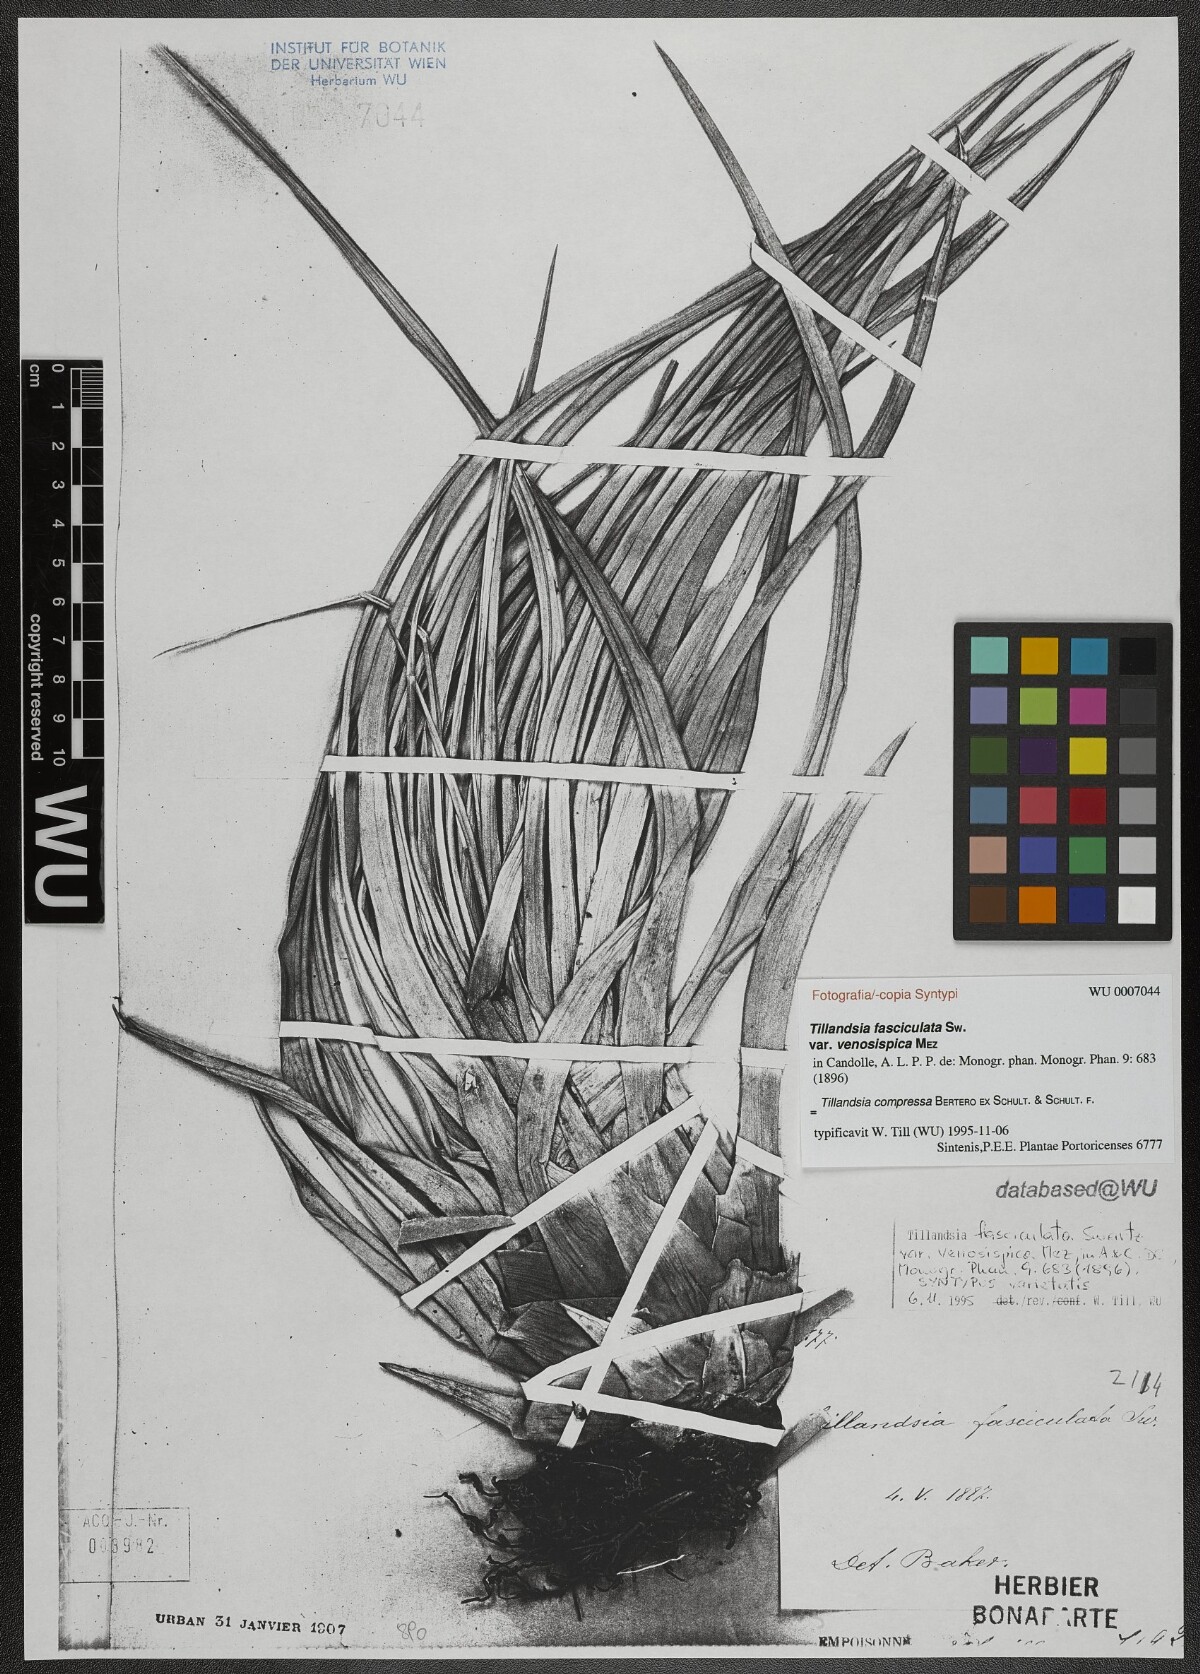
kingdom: Plantae
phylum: Tracheophyta
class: Liliopsida
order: Poales
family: Bromeliaceae
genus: Tillandsia
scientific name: Tillandsia compressa
